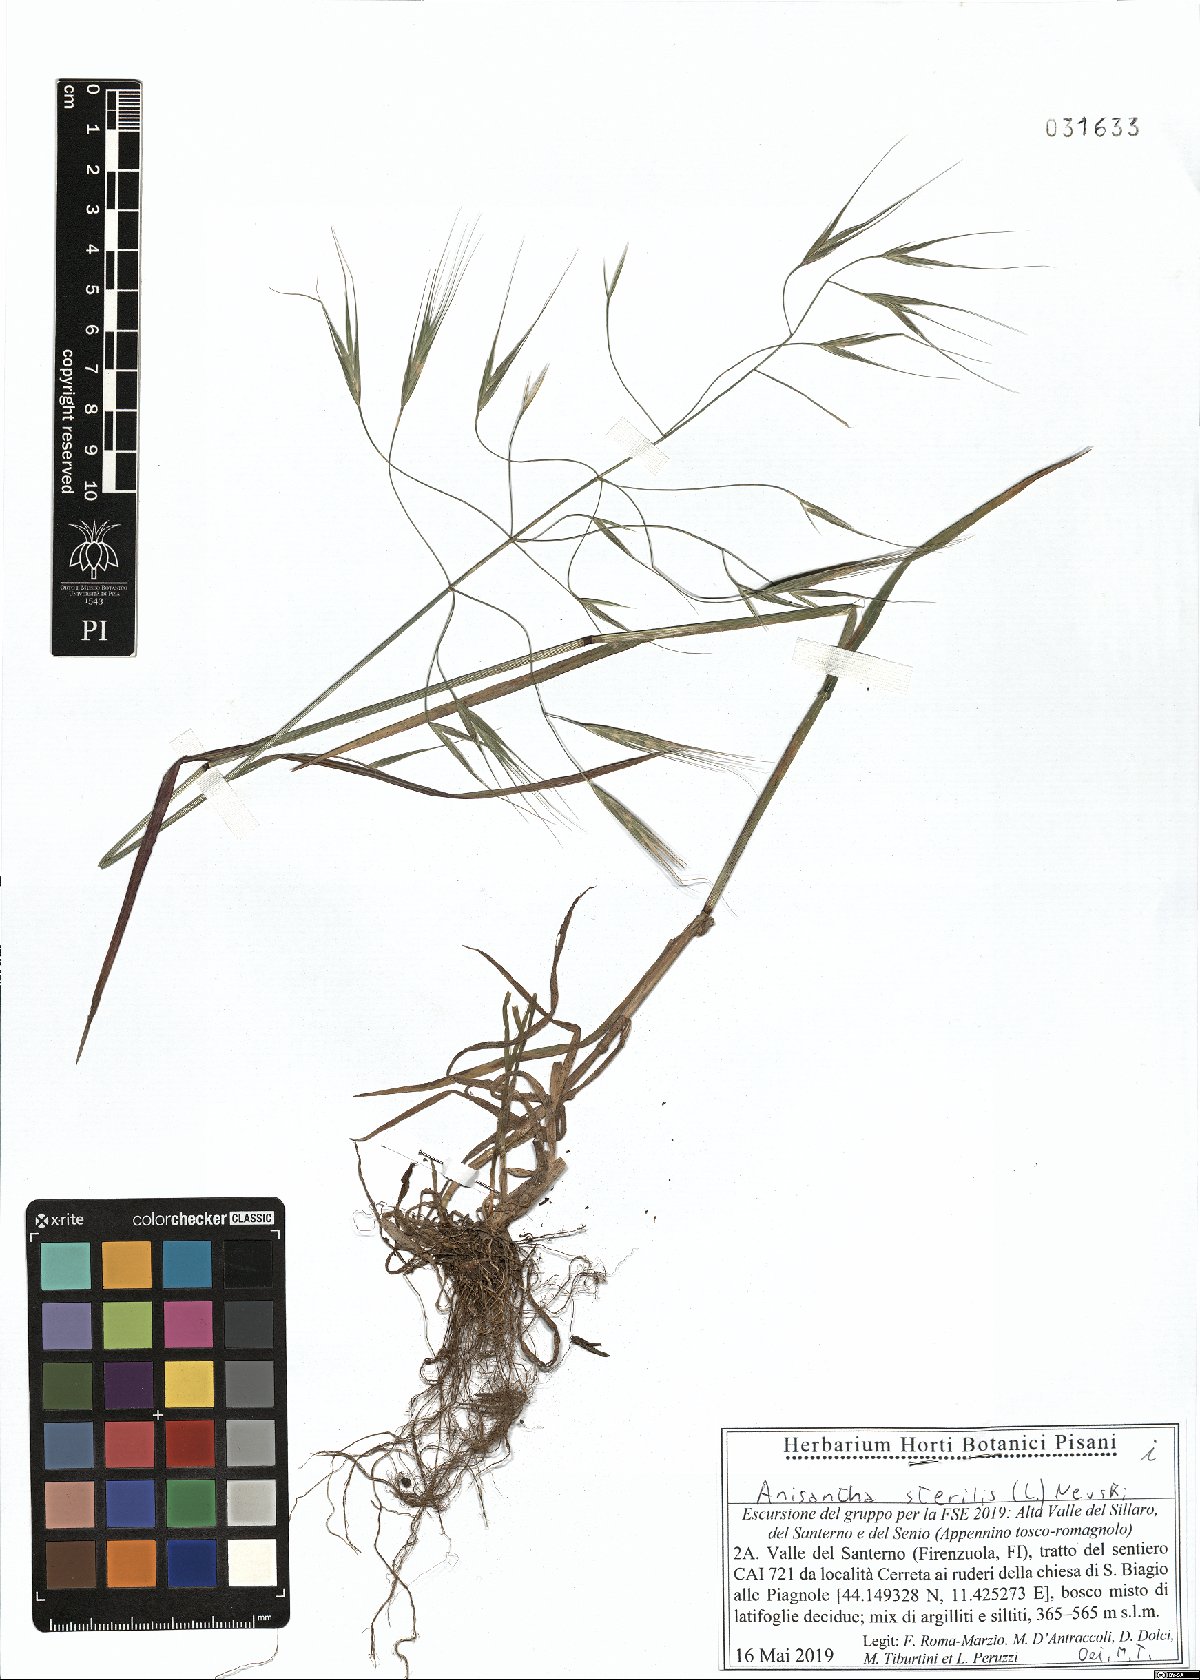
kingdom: Plantae
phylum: Tracheophyta
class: Liliopsida
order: Poales
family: Poaceae
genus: Bromus
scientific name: Bromus sterilis
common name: Poverty brome
